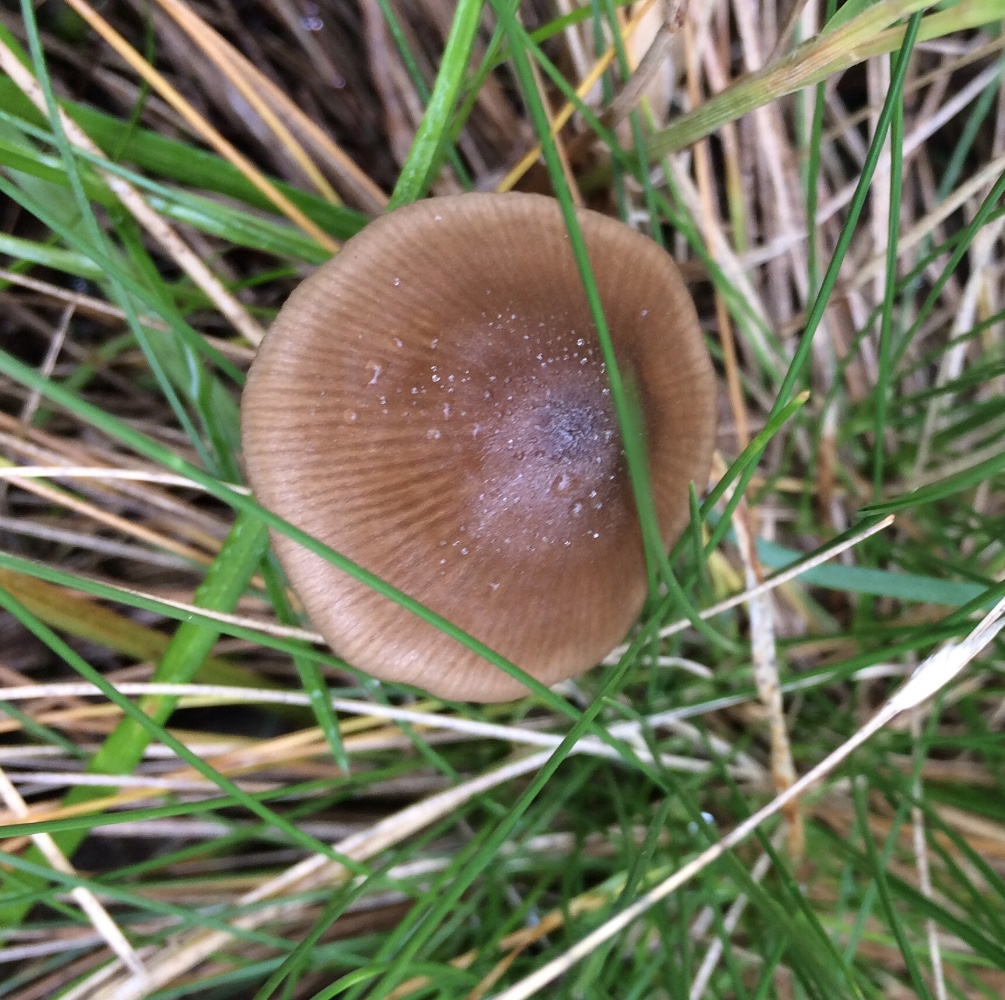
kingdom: Fungi
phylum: Basidiomycota
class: Agaricomycetes
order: Agaricales
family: Entolomataceae
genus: Entoloma
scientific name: Entoloma conferendum
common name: stjernesporet rødblad
